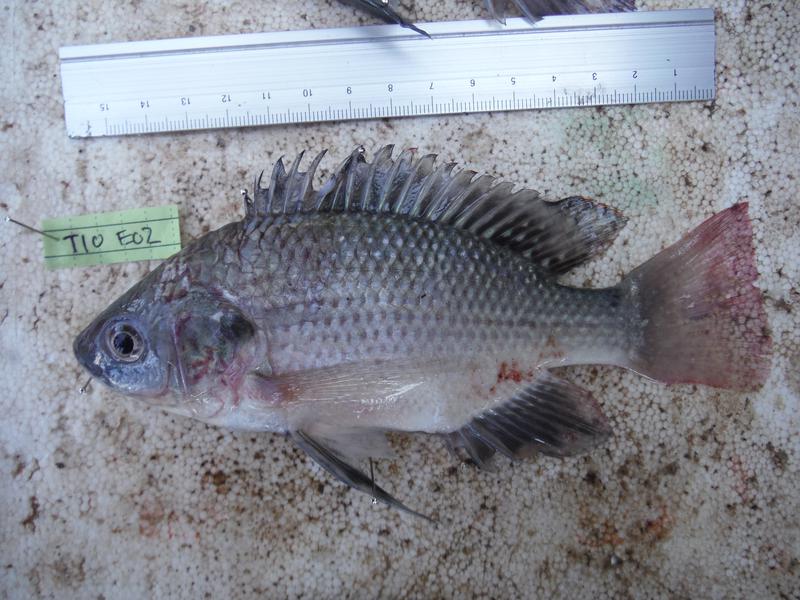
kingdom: Animalia
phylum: Chordata
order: Perciformes
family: Cichlidae
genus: Oreochromis
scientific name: Oreochromis esculentus
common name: Carp
